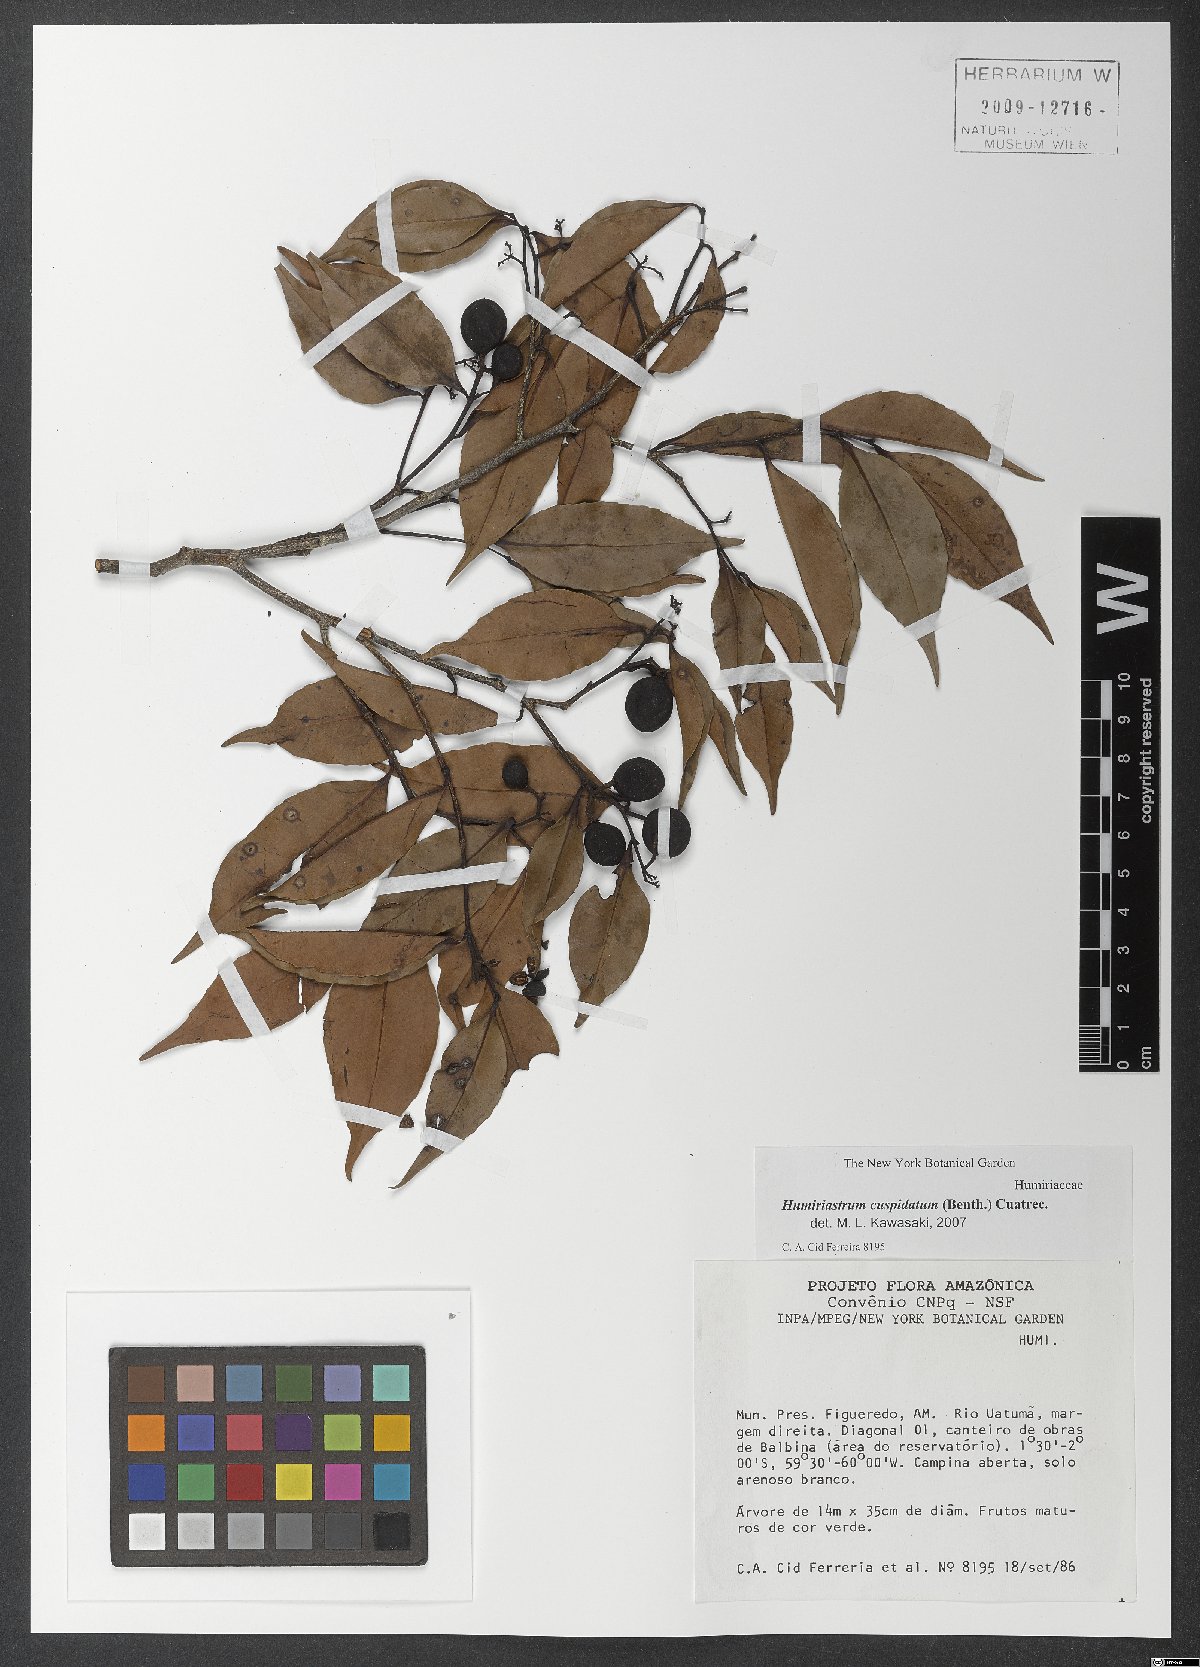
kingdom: Plantae
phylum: Tracheophyta
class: Magnoliopsida
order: Malpighiales
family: Humiriaceae
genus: Humiriastrum
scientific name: Humiriastrum cuspidatum
